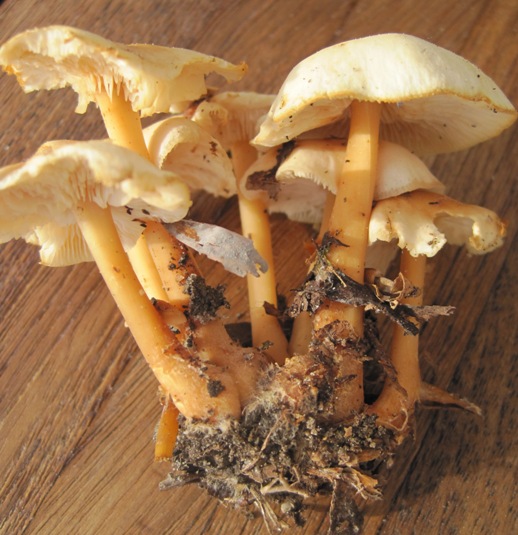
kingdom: Fungi
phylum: Basidiomycota
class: Agaricomycetes
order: Agaricales
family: Omphalotaceae
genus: Gymnopus
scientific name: Gymnopus aquosus
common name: bleg fladhat
